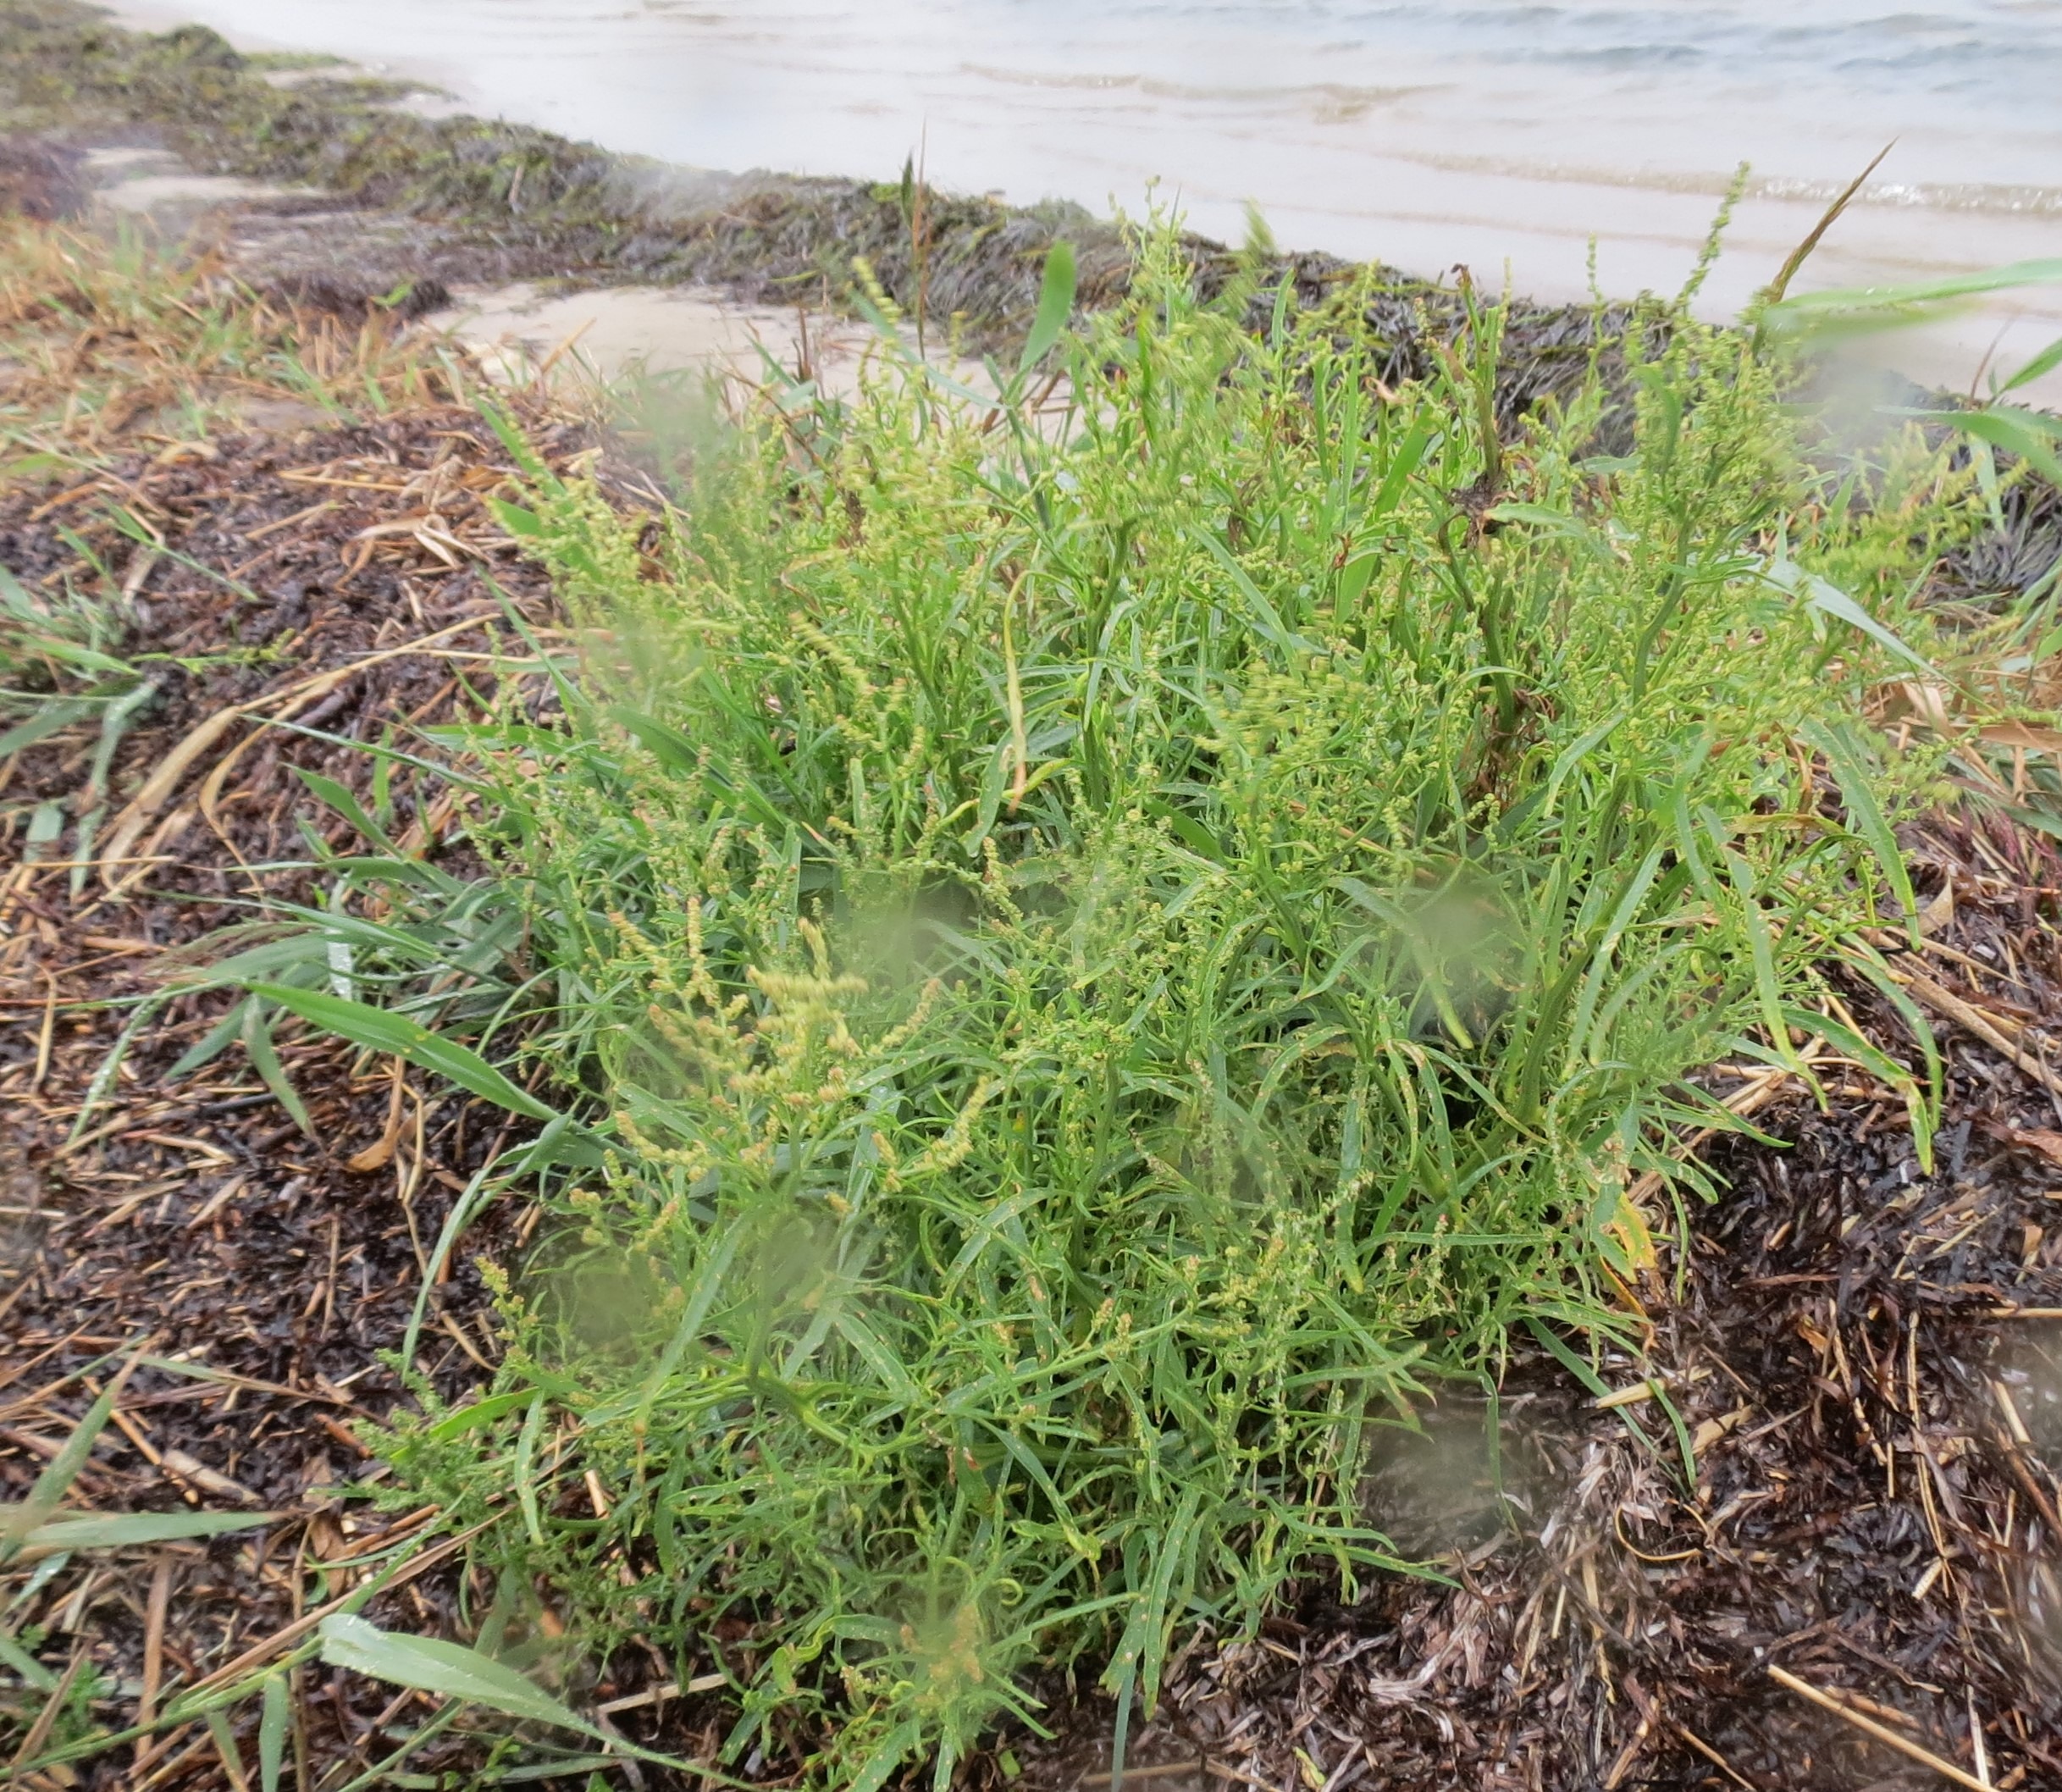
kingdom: Plantae
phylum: Tracheophyta
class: Magnoliopsida
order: Caryophyllales
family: Amaranthaceae
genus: Atriplex
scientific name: Atriplex littoralis
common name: Strand-mælde
